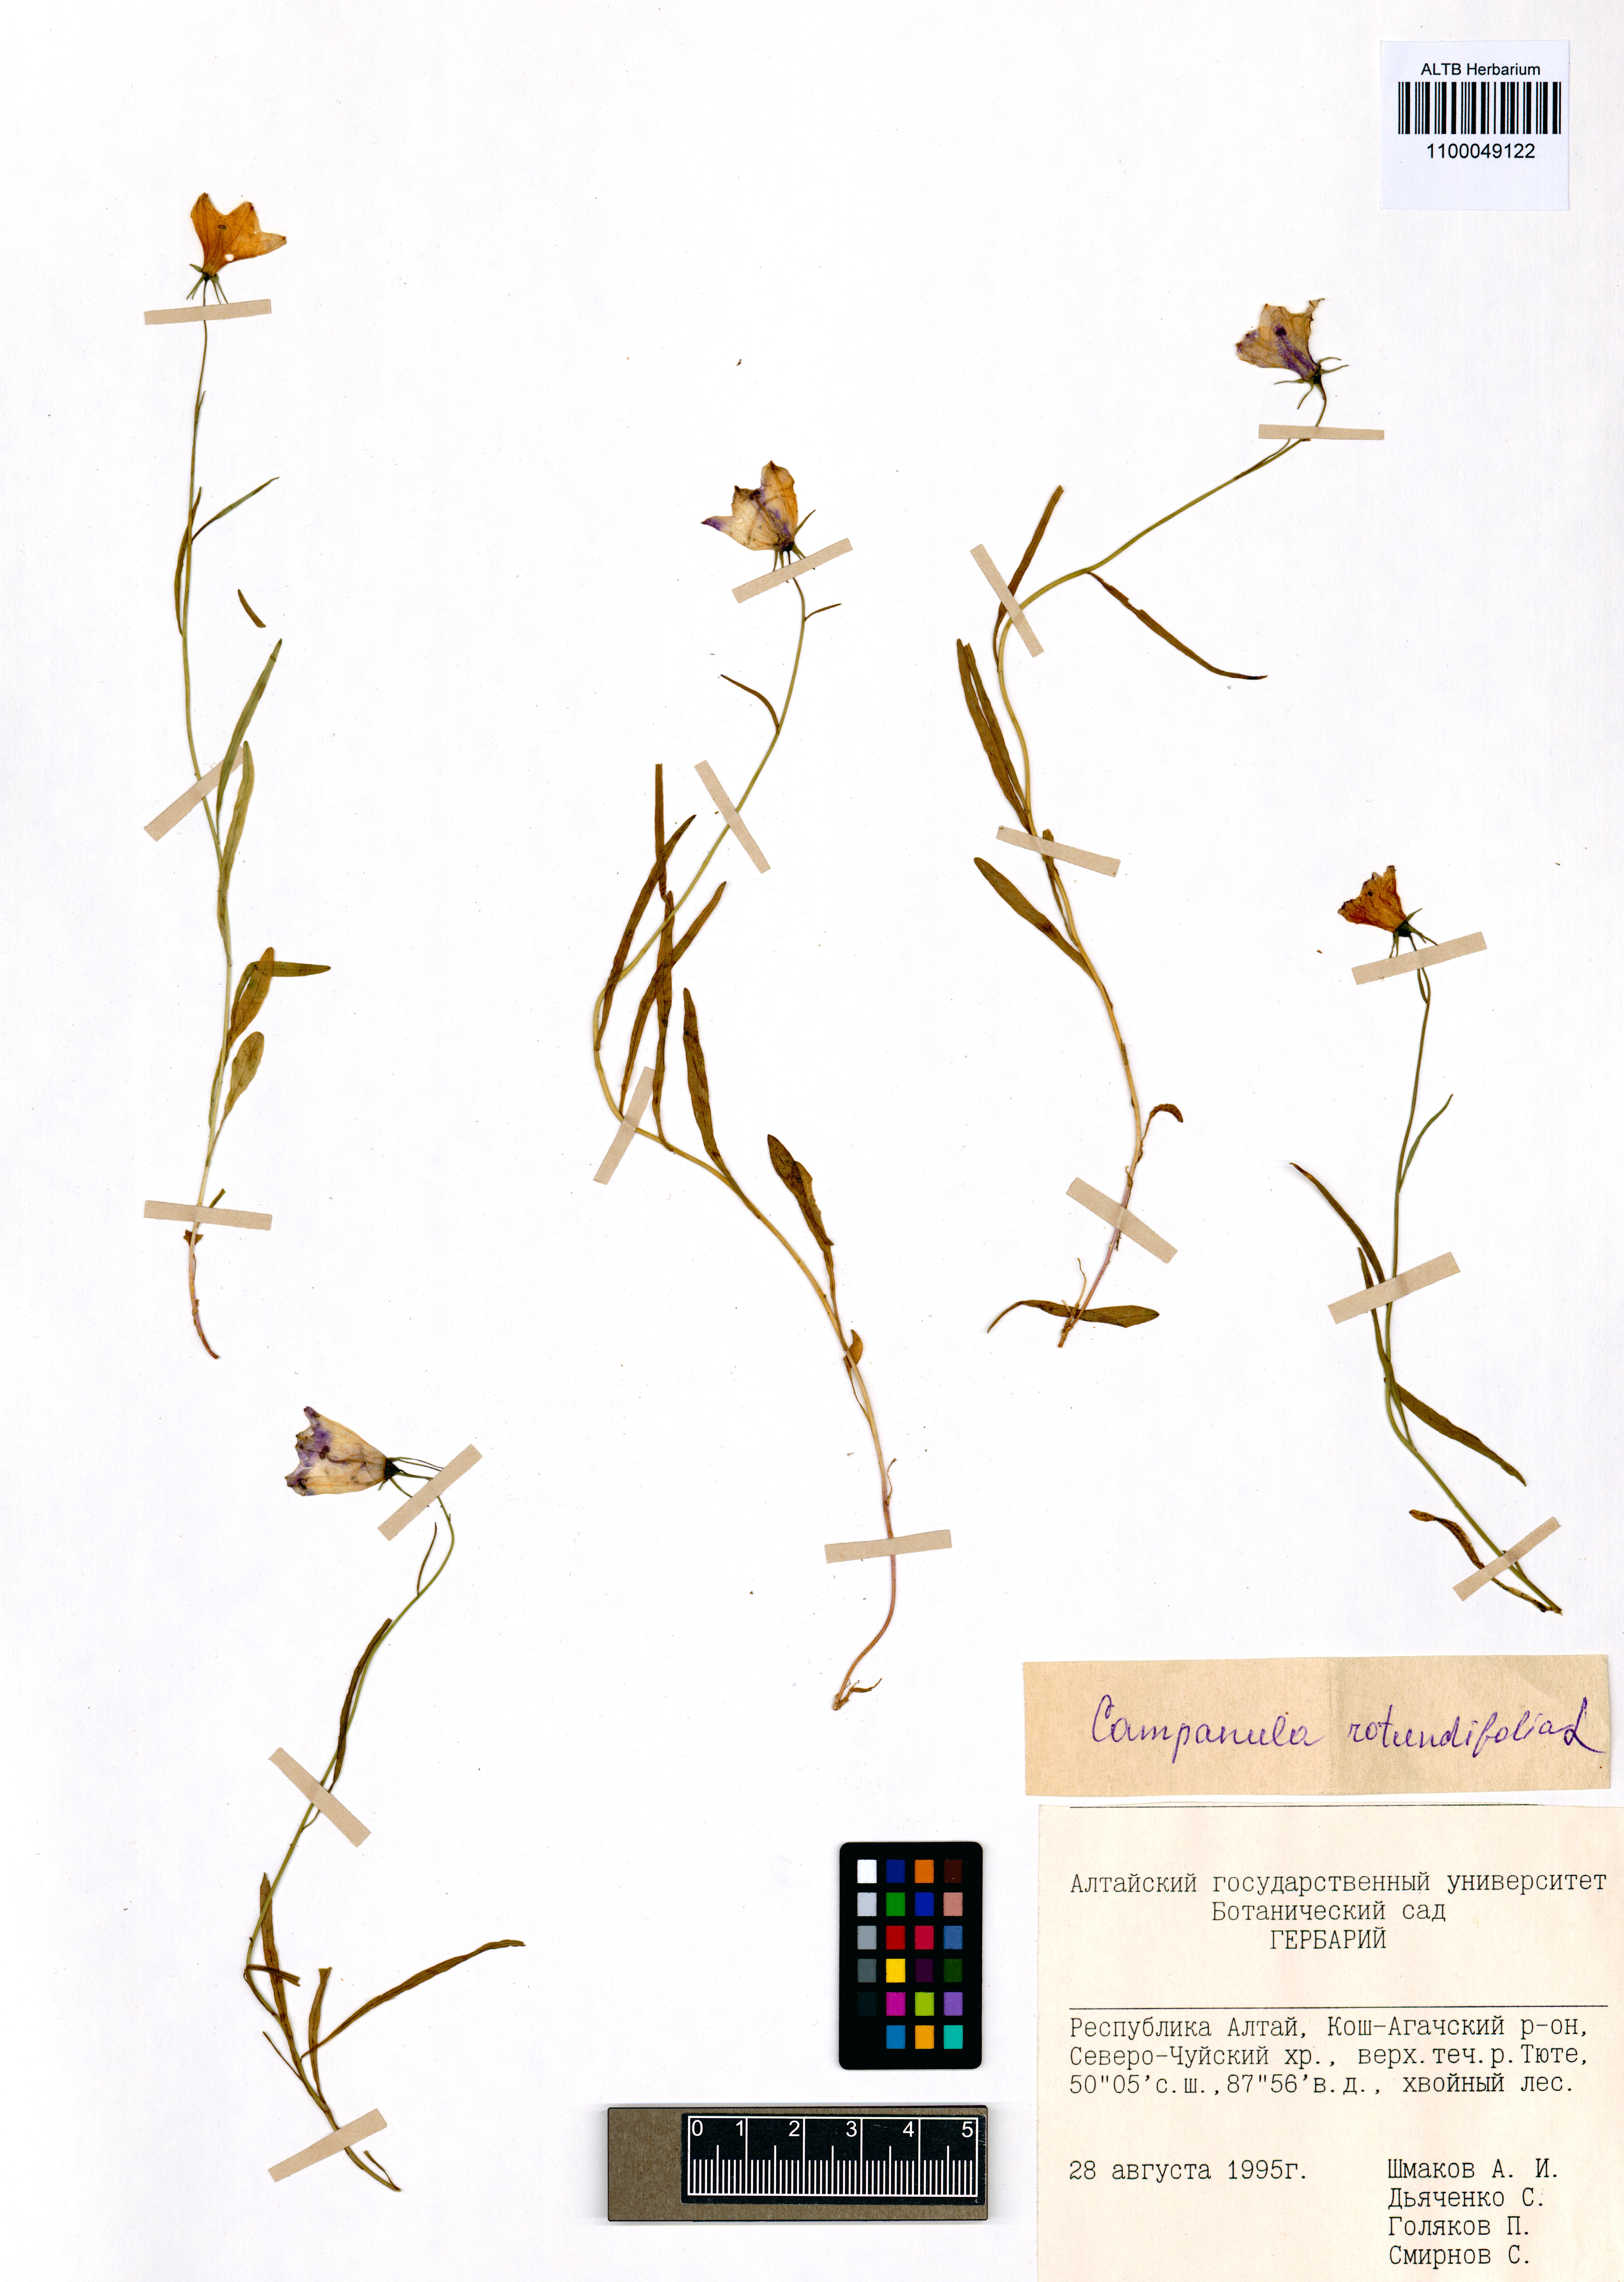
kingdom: Plantae
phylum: Tracheophyta
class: Magnoliopsida
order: Asterales
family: Campanulaceae
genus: Campanula
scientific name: Campanula rotundifolia
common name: Harebell
